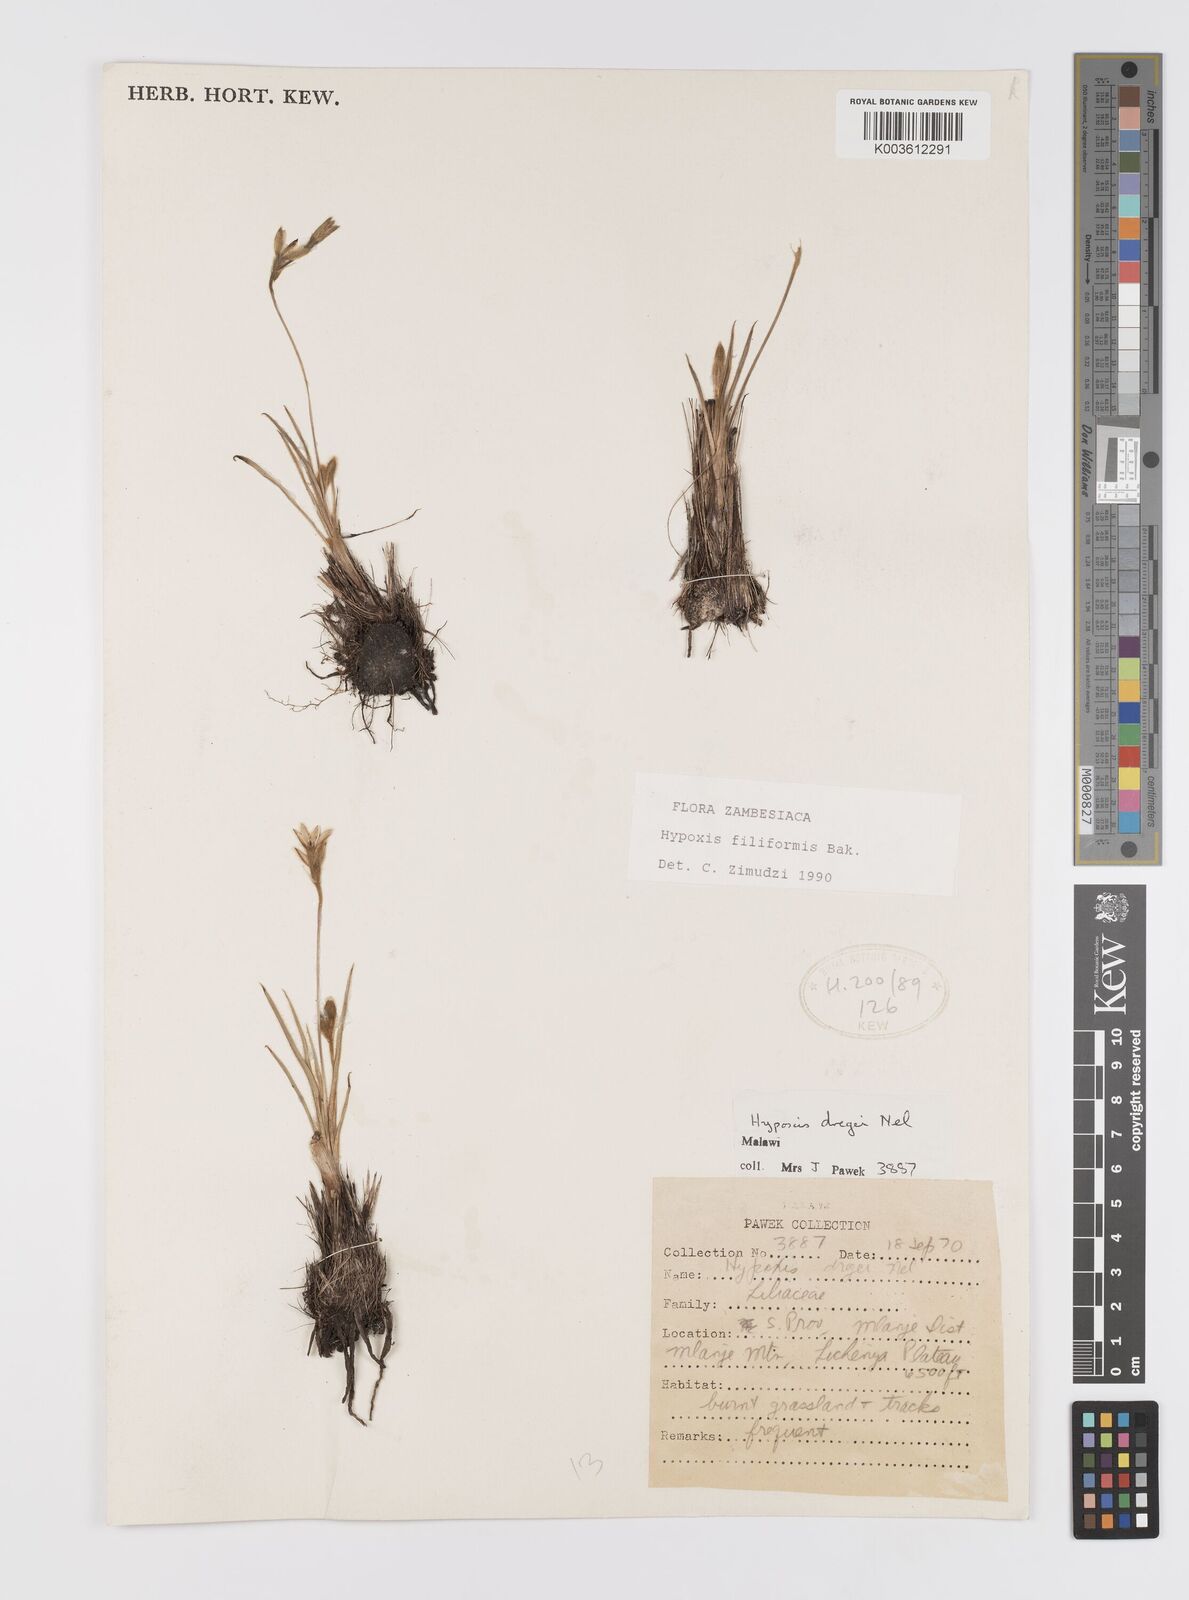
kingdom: Plantae
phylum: Tracheophyta
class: Liliopsida
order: Asparagales
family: Hypoxidaceae
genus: Hypoxis
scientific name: Hypoxis filiformis
